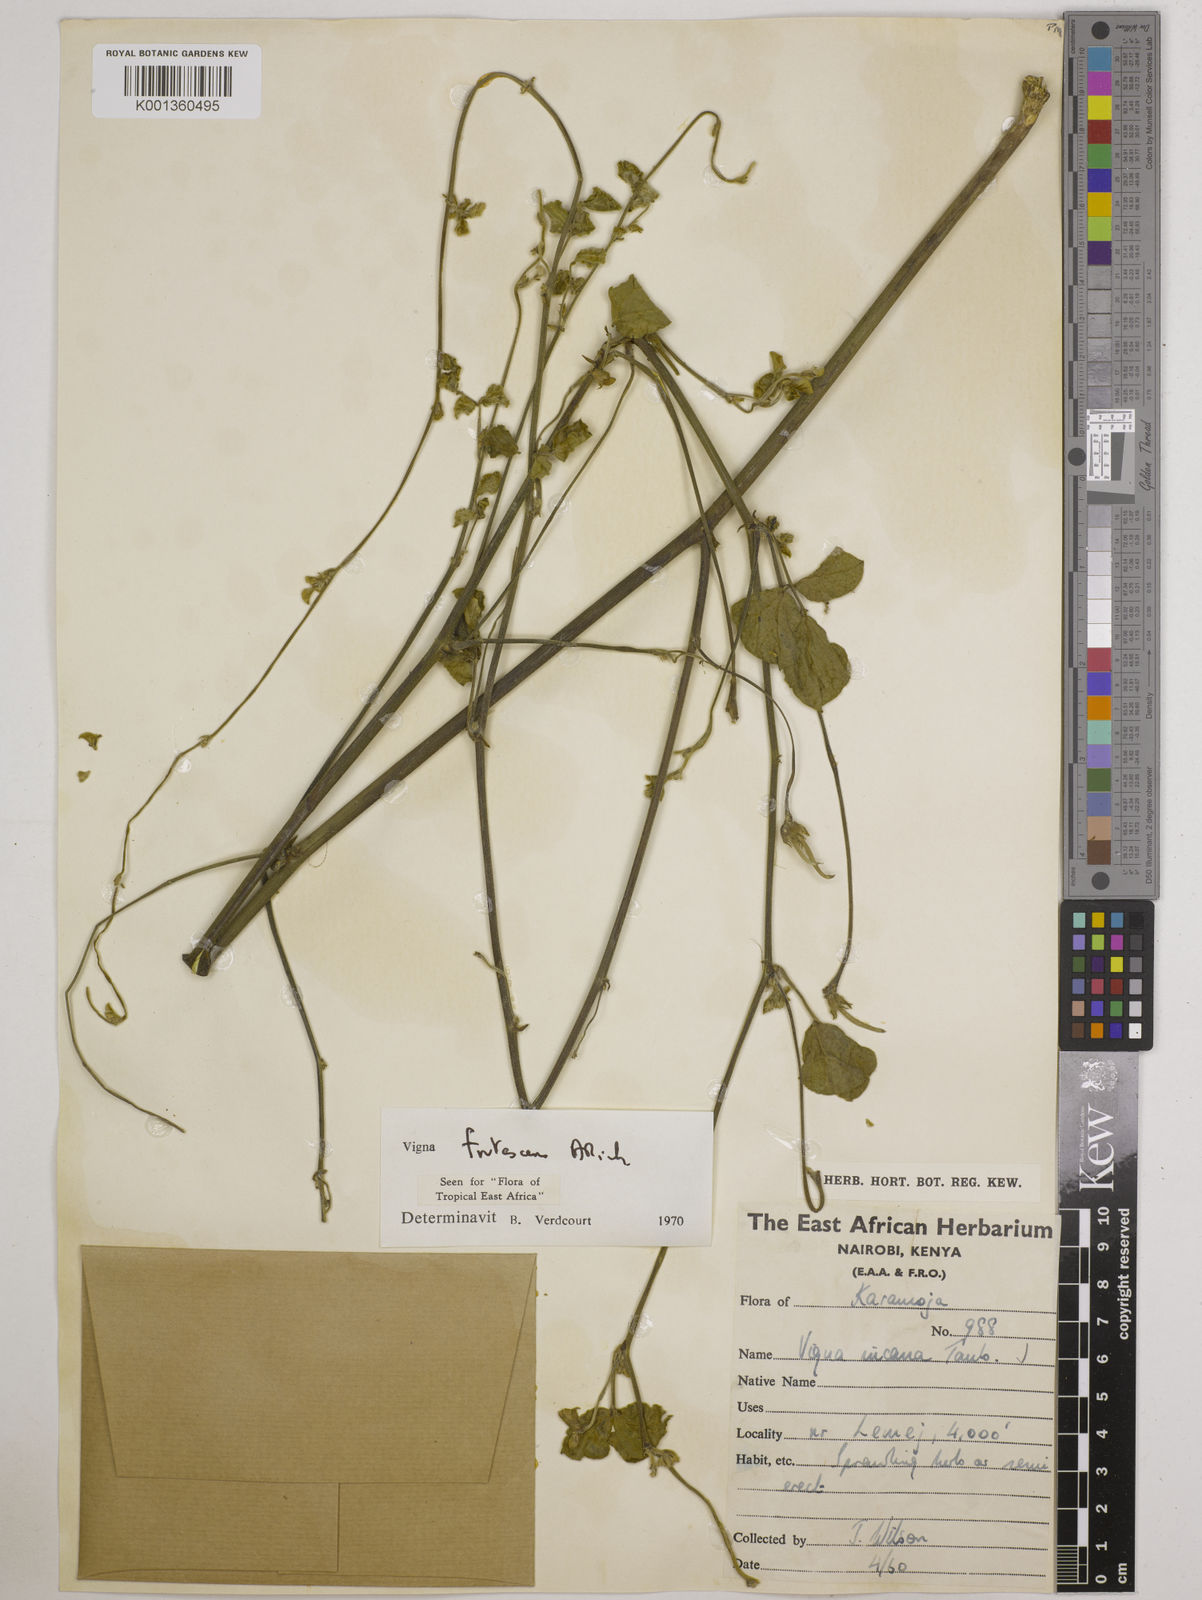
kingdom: Plantae
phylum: Tracheophyta
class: Magnoliopsida
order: Fabales
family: Fabaceae
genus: Vigna
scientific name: Vigna frutescens
